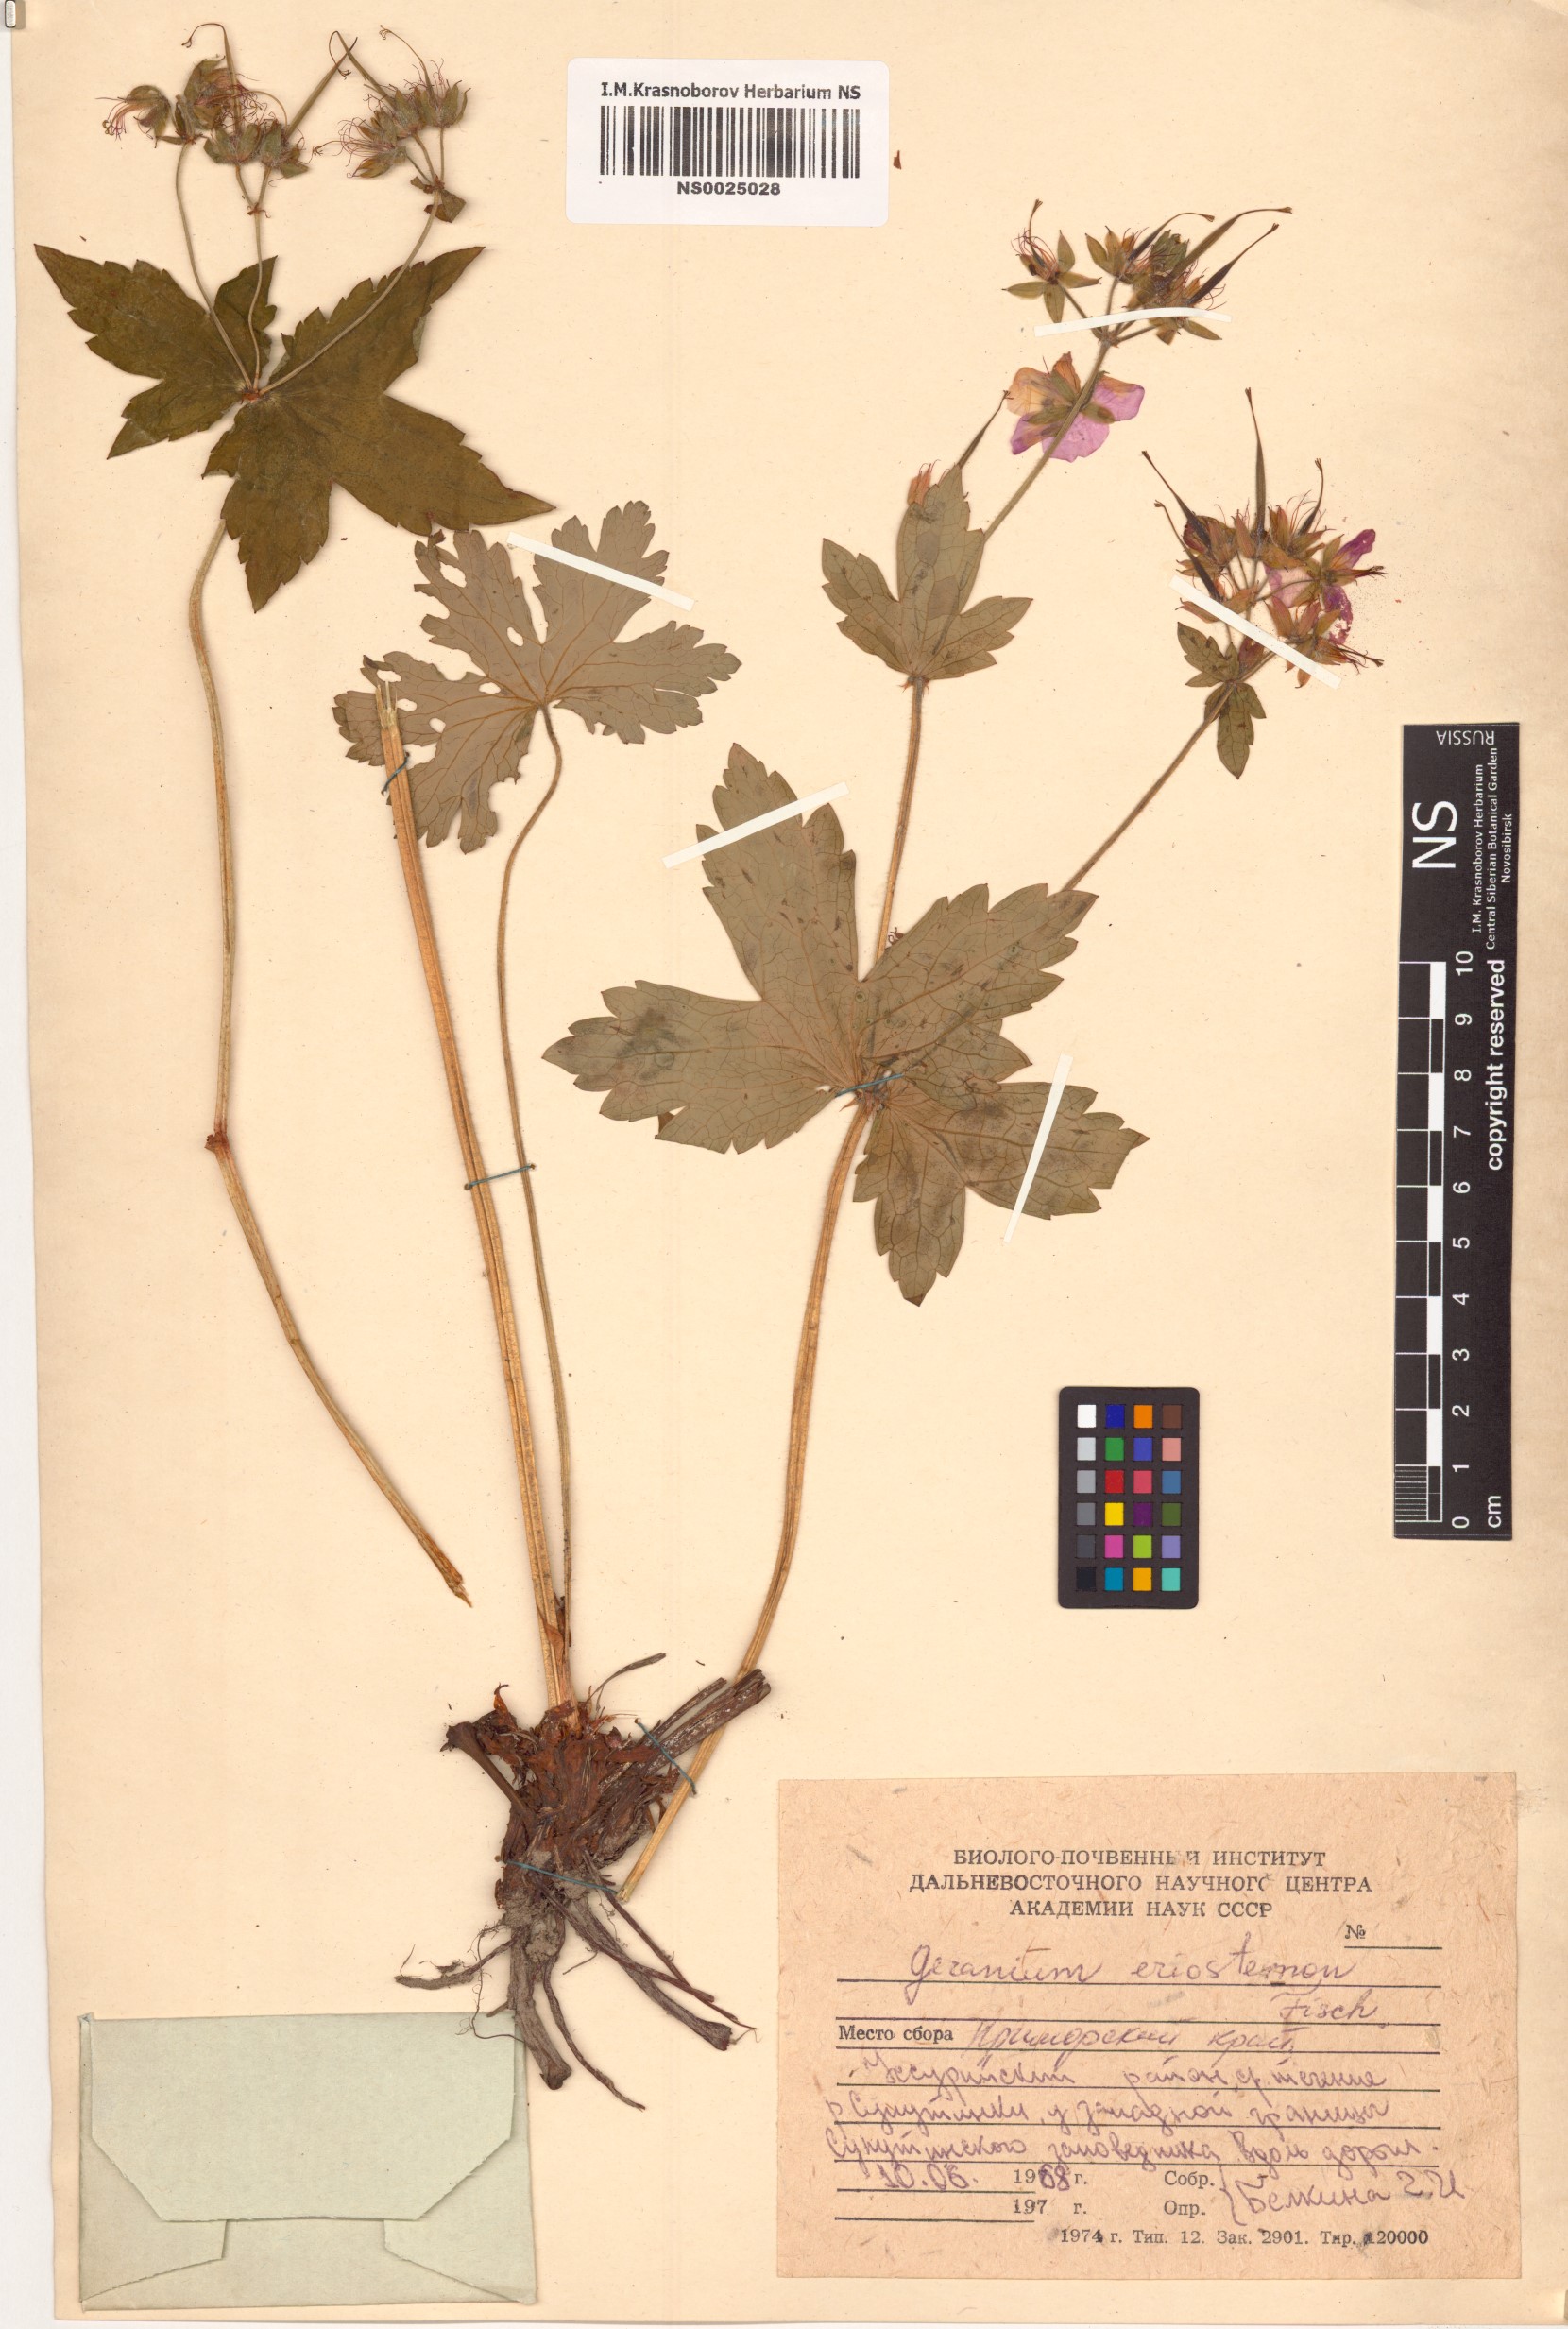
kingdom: Plantae
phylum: Tracheophyta
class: Magnoliopsida
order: Geraniales
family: Geraniaceae
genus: Geranium
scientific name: Geranium platyanthum
